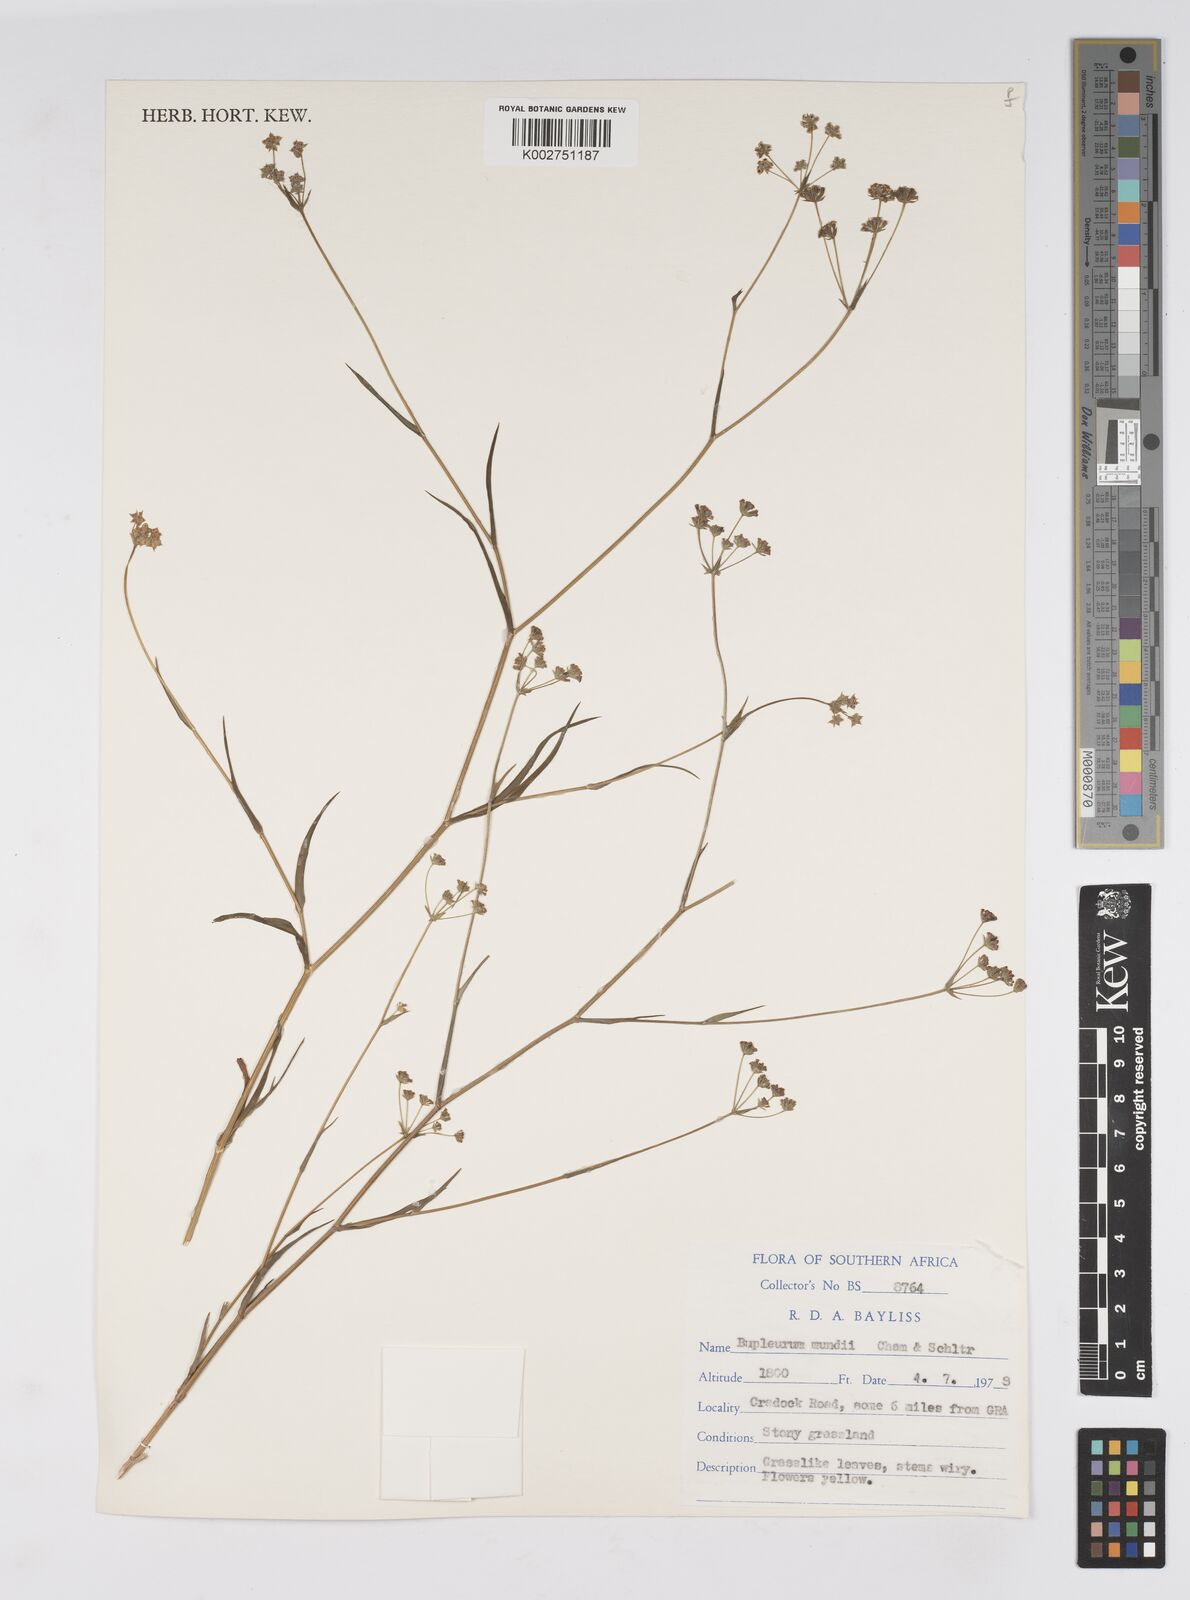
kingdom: Plantae
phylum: Tracheophyta
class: Magnoliopsida
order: Apiales
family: Apiaceae
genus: Bupleurum
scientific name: Bupleurum mundii
